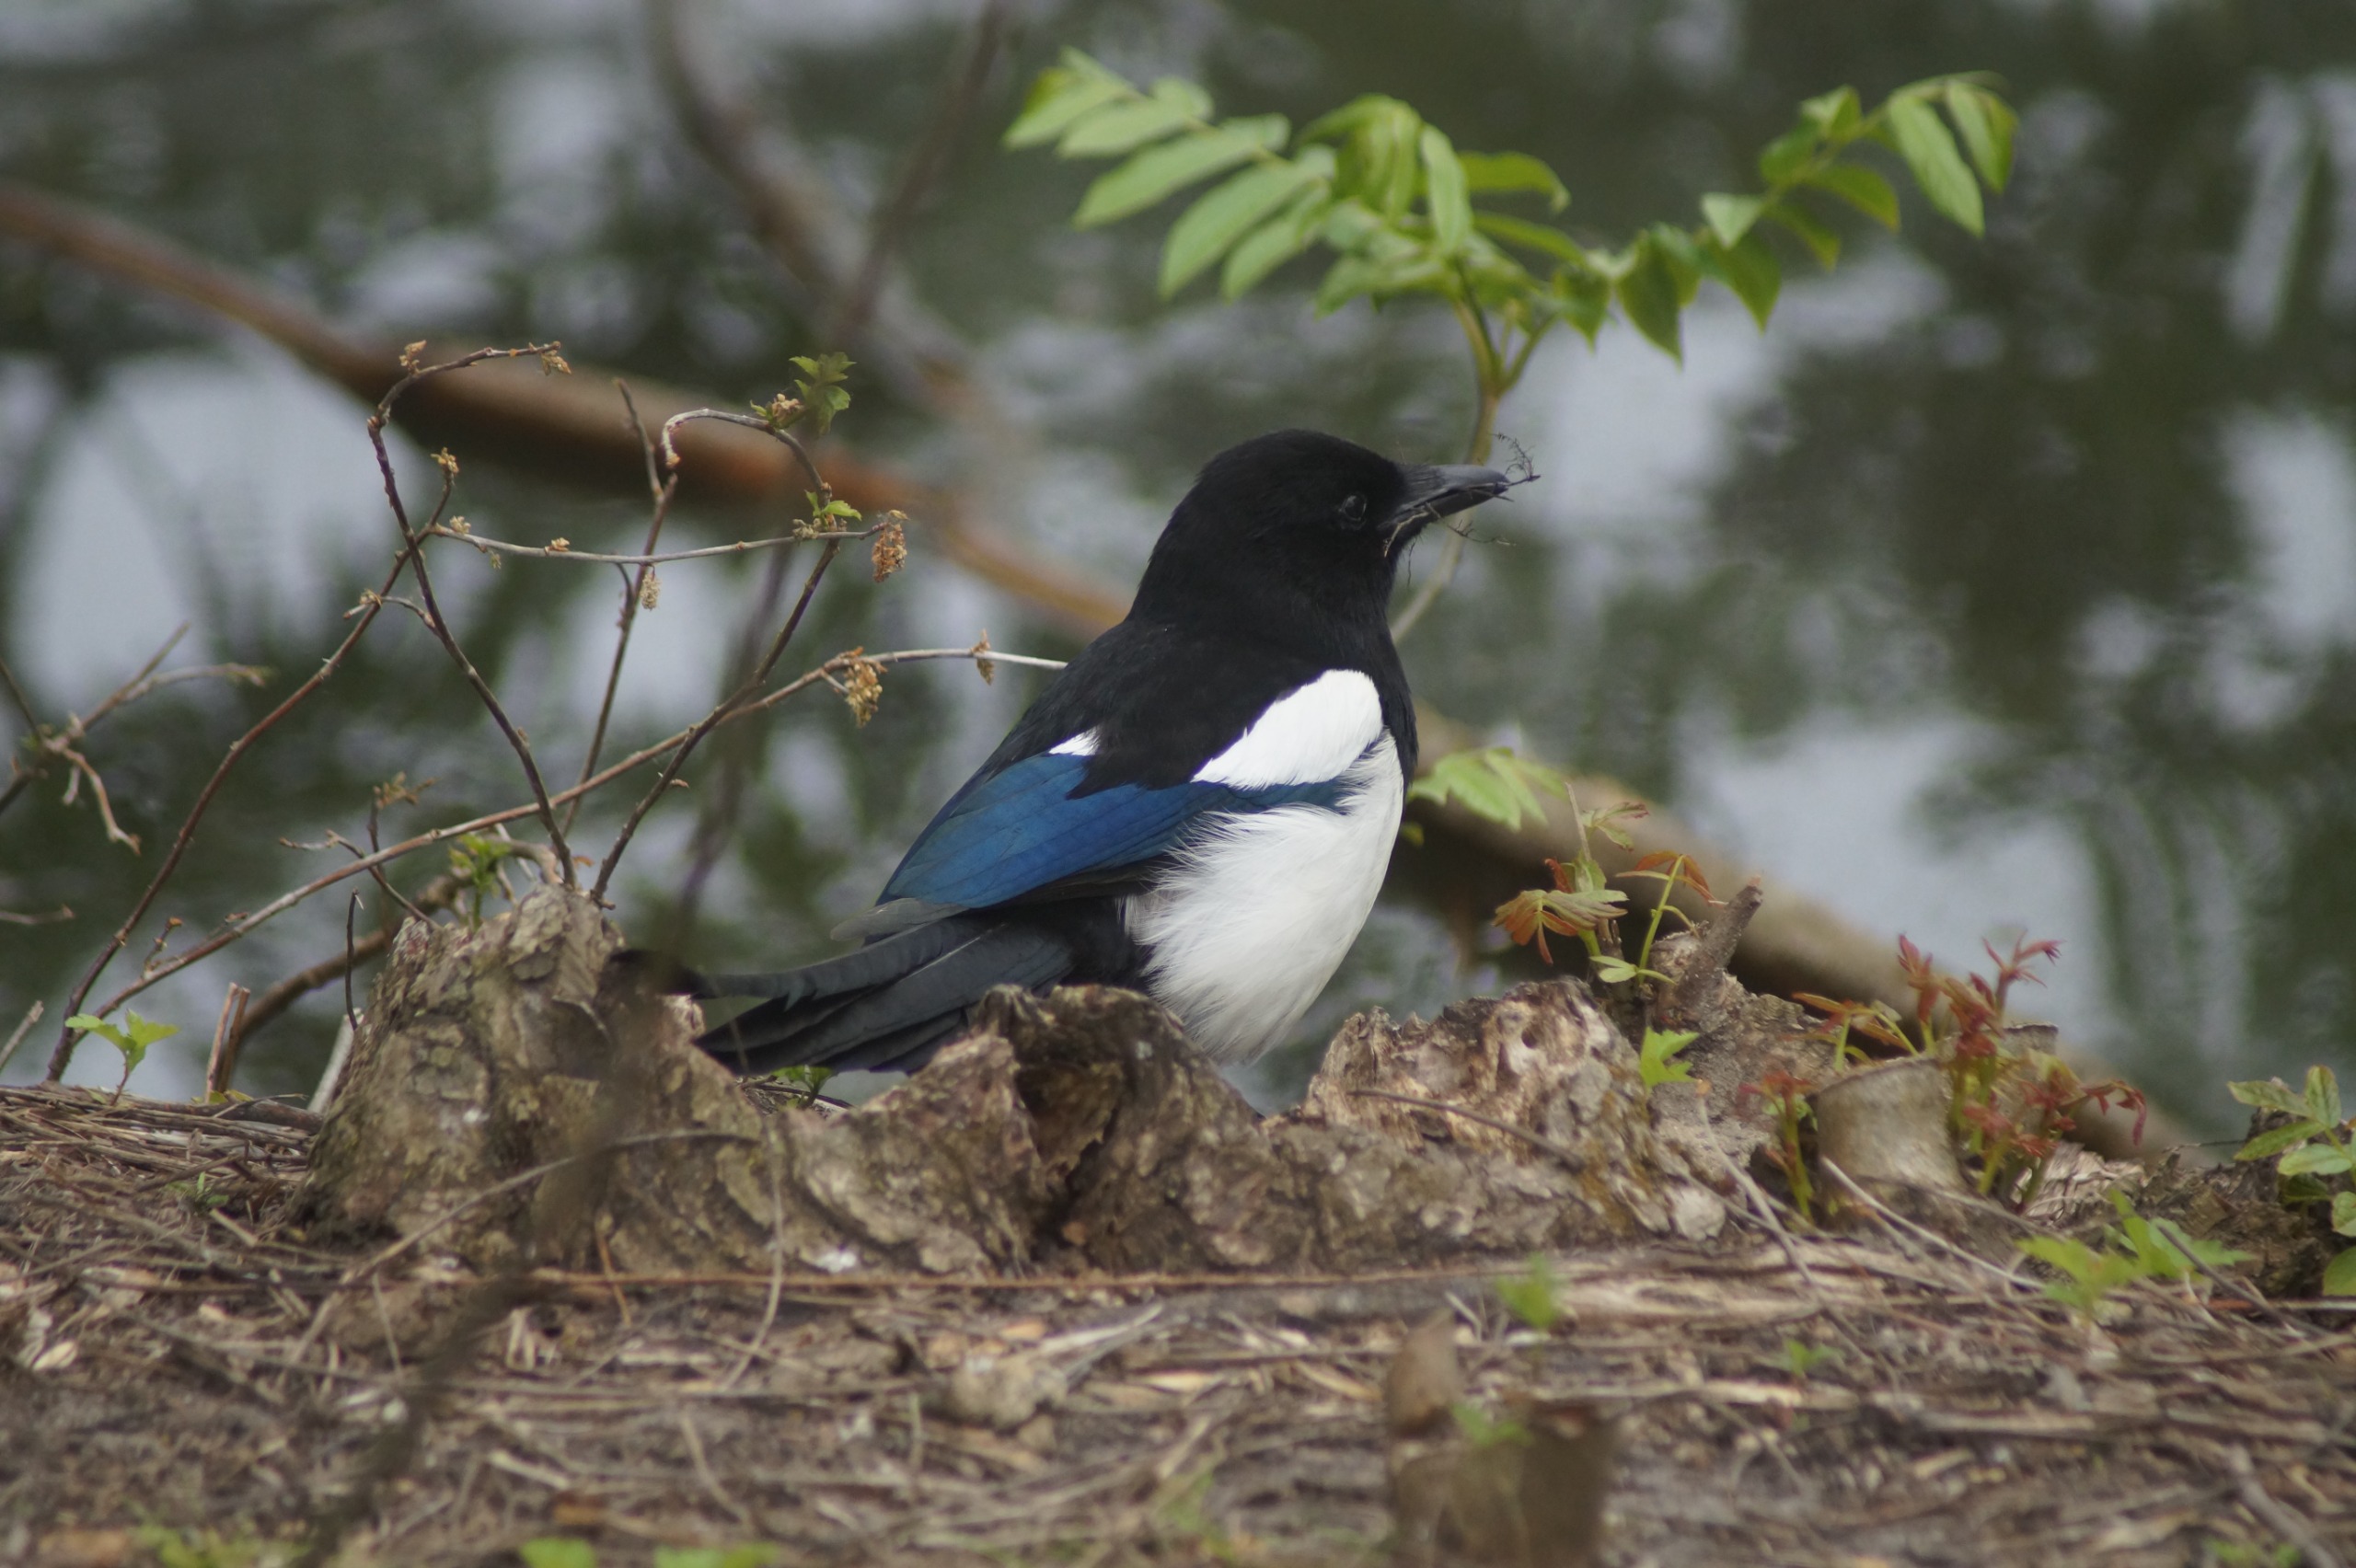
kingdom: Animalia
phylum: Chordata
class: Aves
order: Passeriformes
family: Corvidae
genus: Pica
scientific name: Pica pica
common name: Husskade
